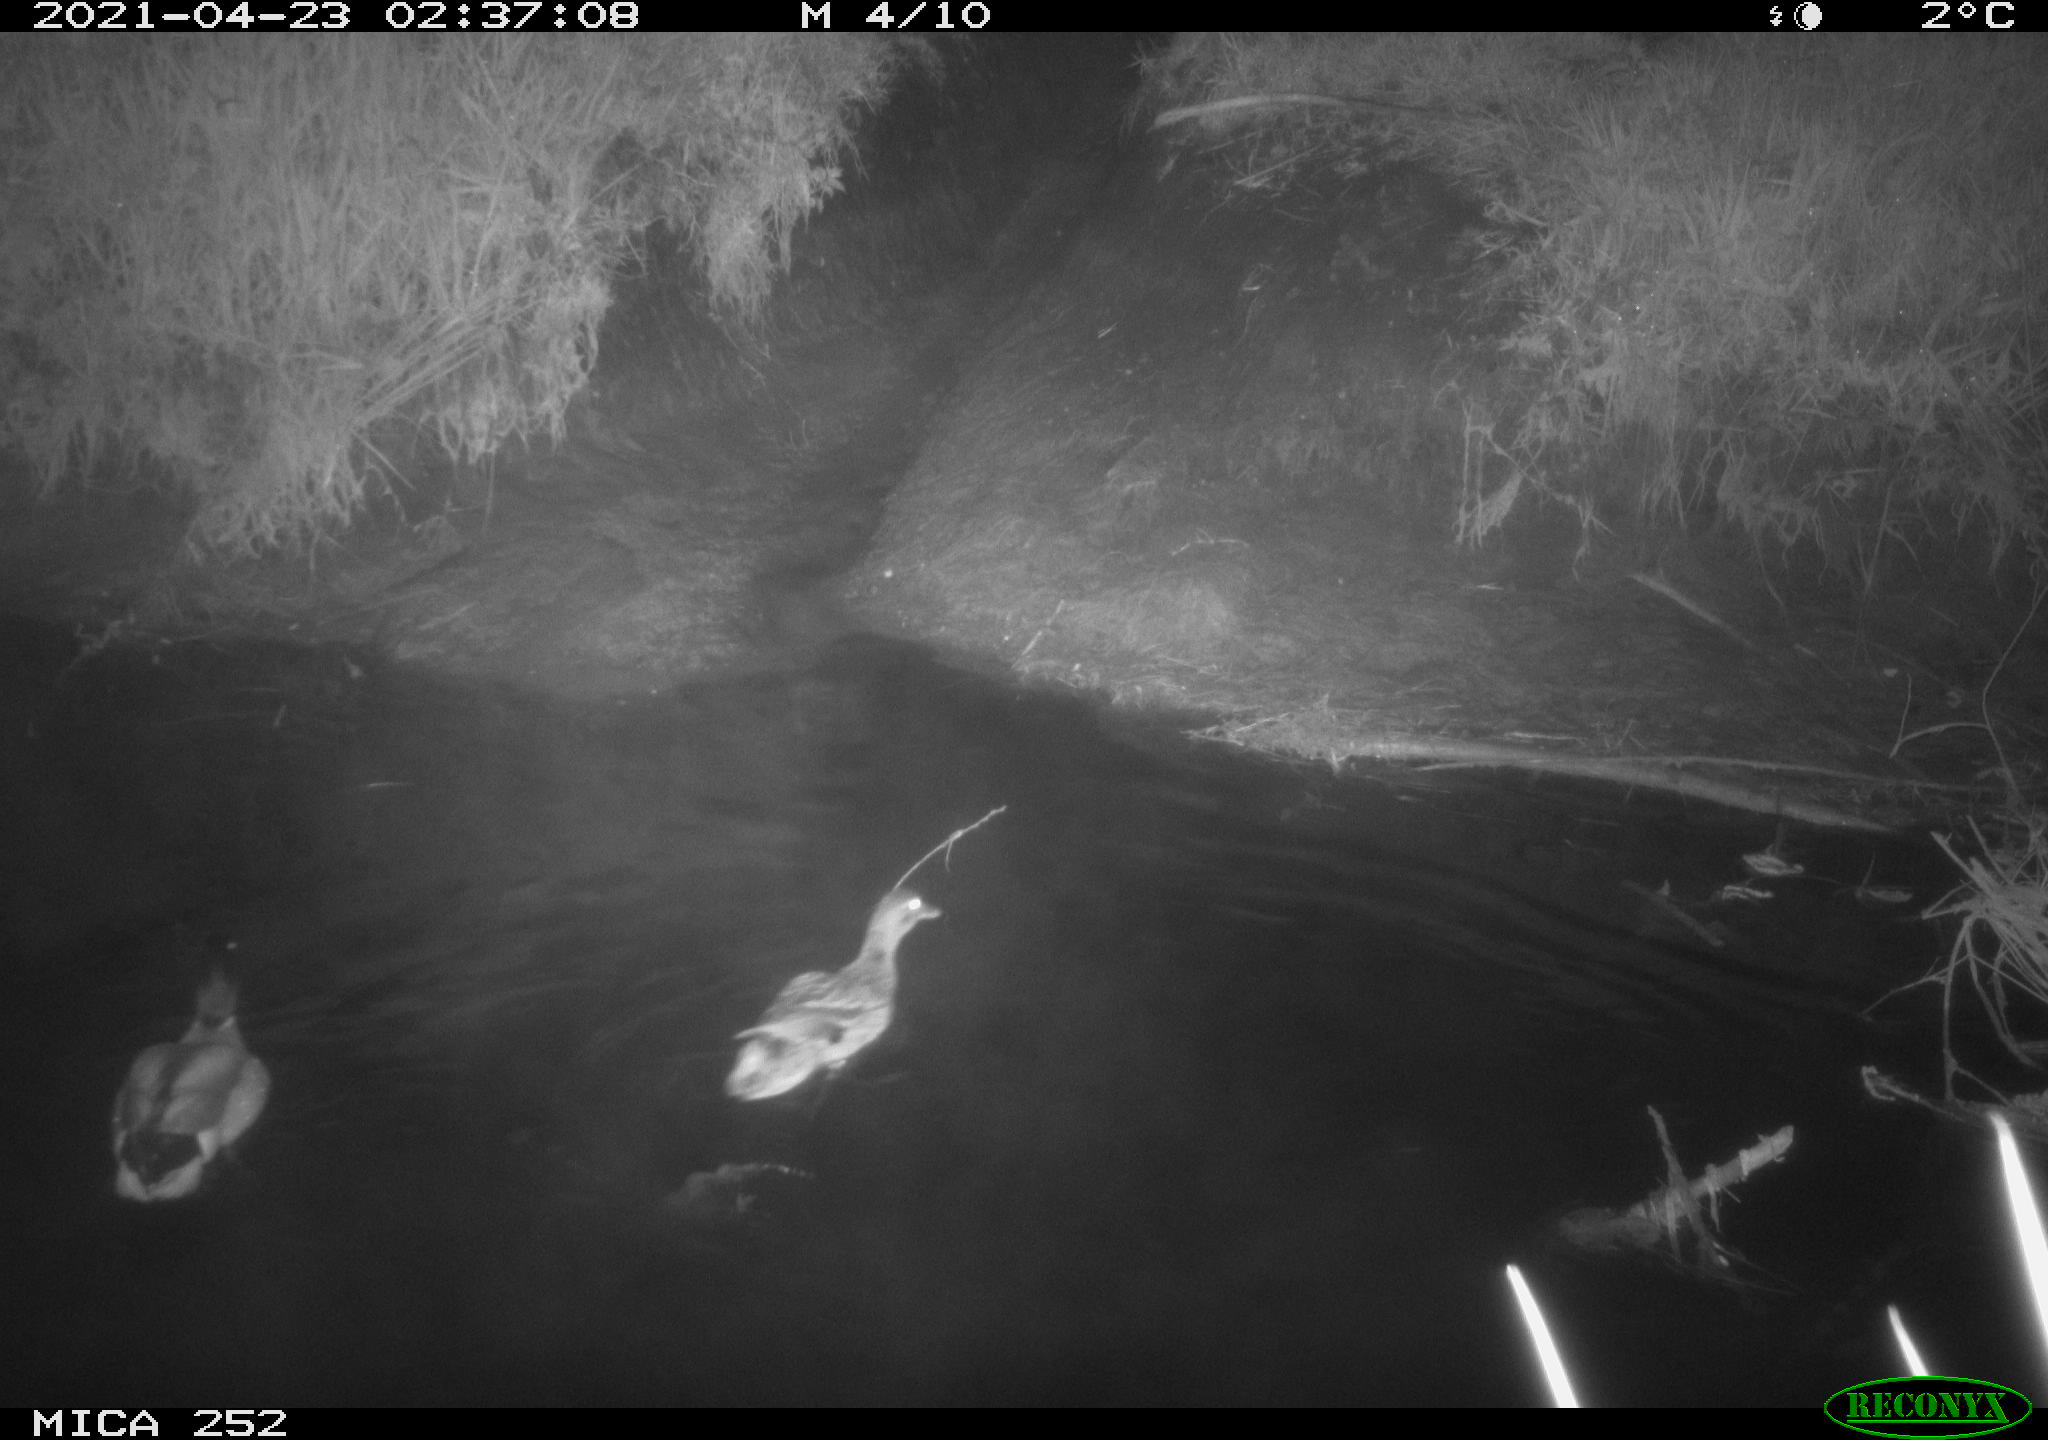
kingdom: Animalia
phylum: Chordata
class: Aves
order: Anseriformes
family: Anatidae
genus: Anas
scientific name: Anas platyrhynchos
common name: Mallard
